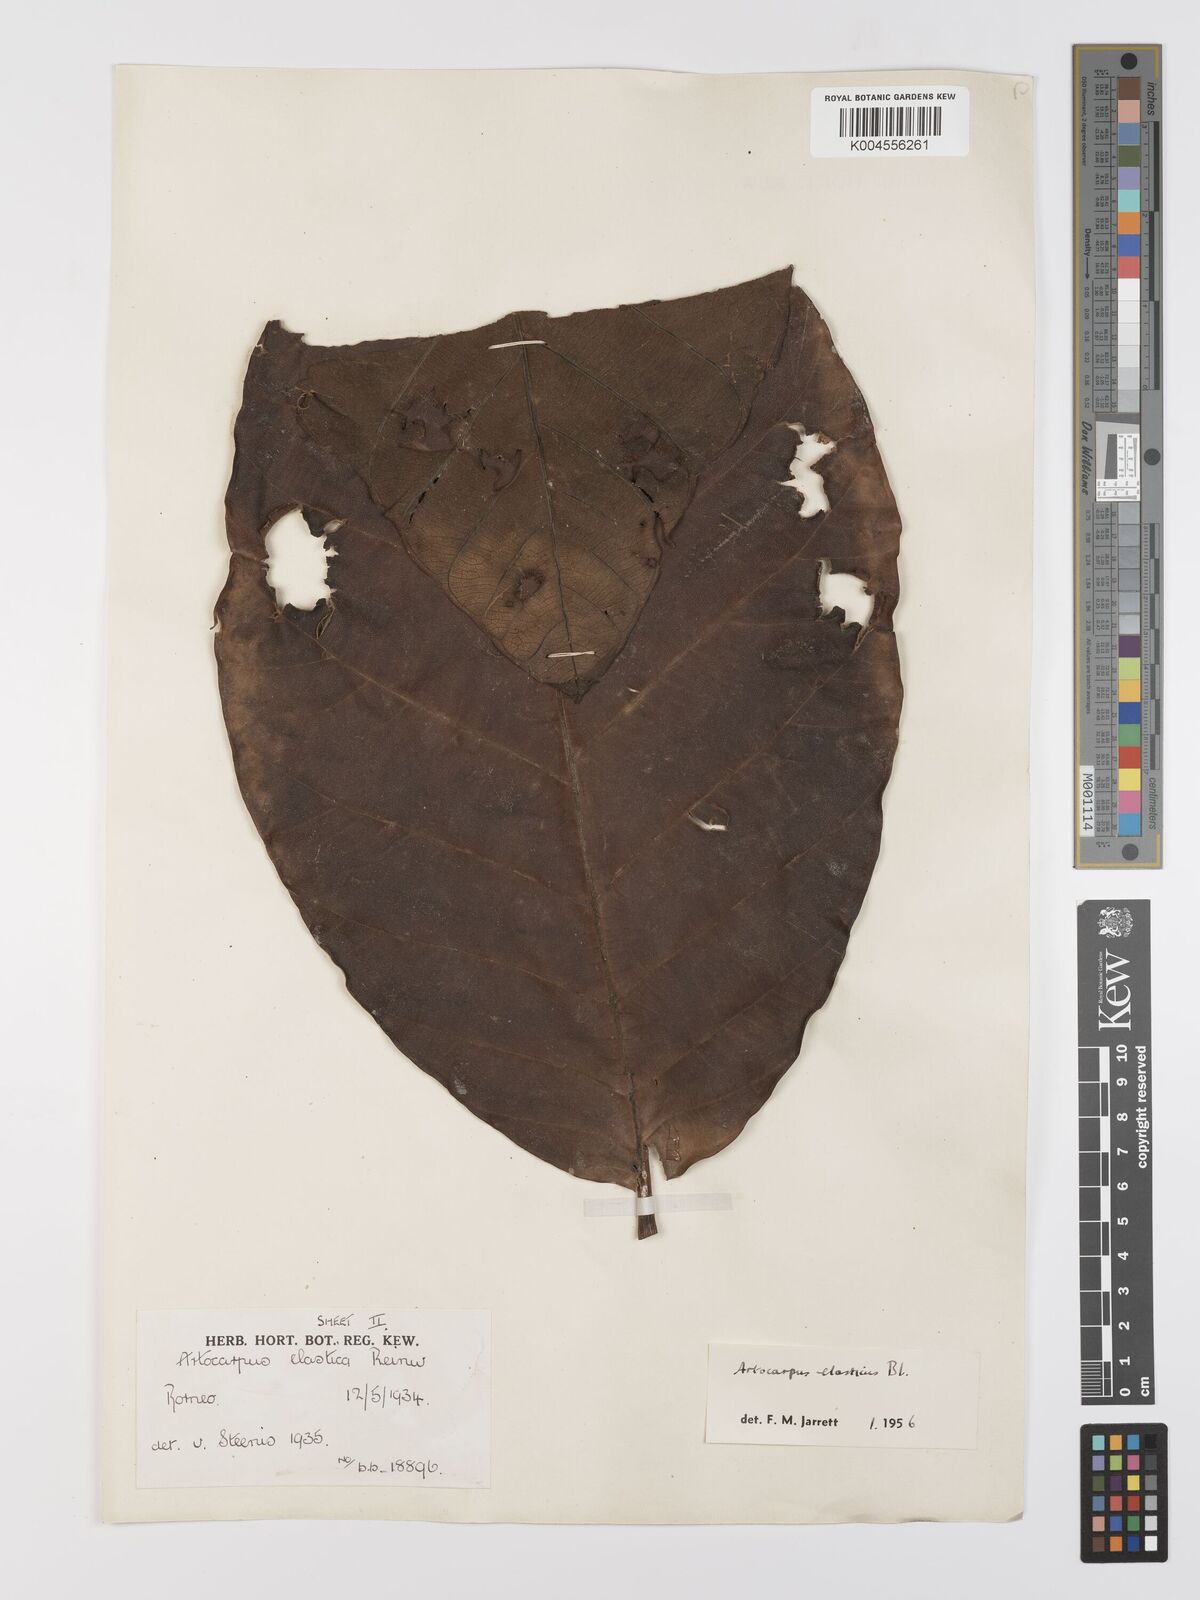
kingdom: Plantae
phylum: Tracheophyta
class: Magnoliopsida
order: Rosales
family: Moraceae
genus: Artocarpus
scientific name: Artocarpus elasticus
